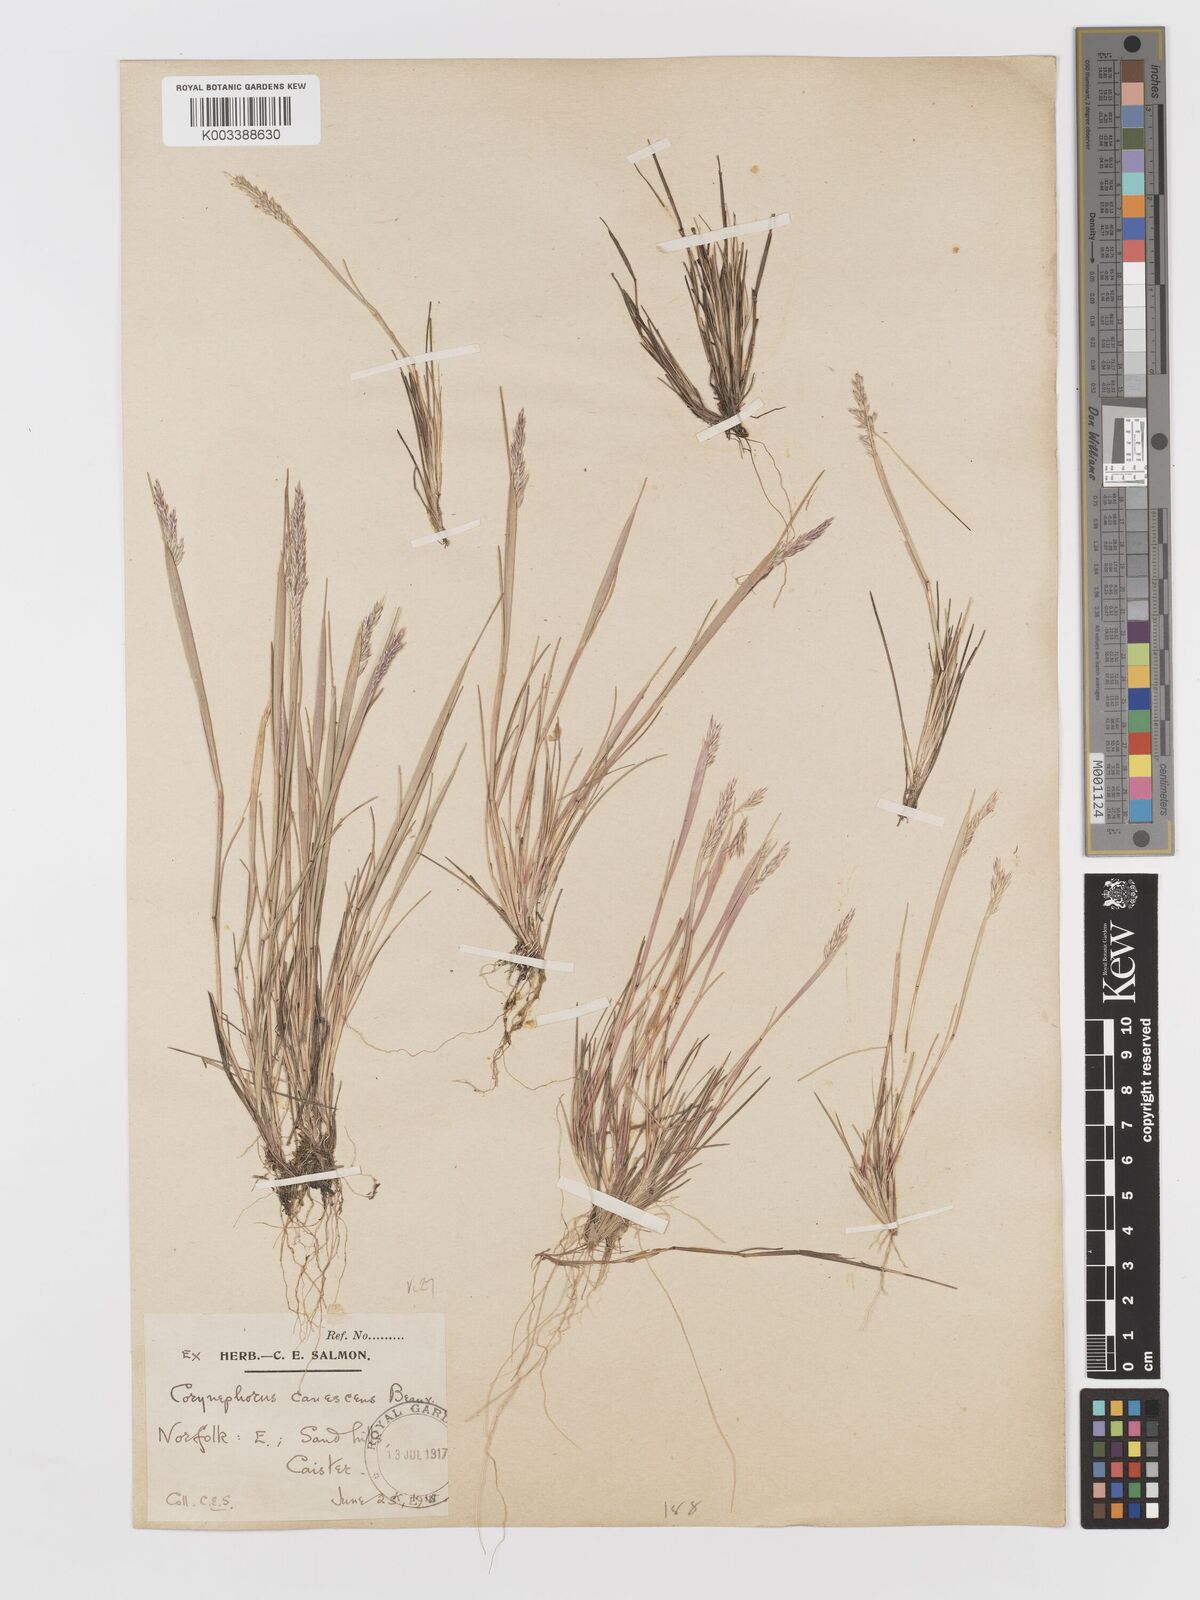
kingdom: Plantae
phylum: Tracheophyta
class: Liliopsida
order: Poales
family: Poaceae
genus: Corynephorus
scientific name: Corynephorus canescens
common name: Grey hair-grass
